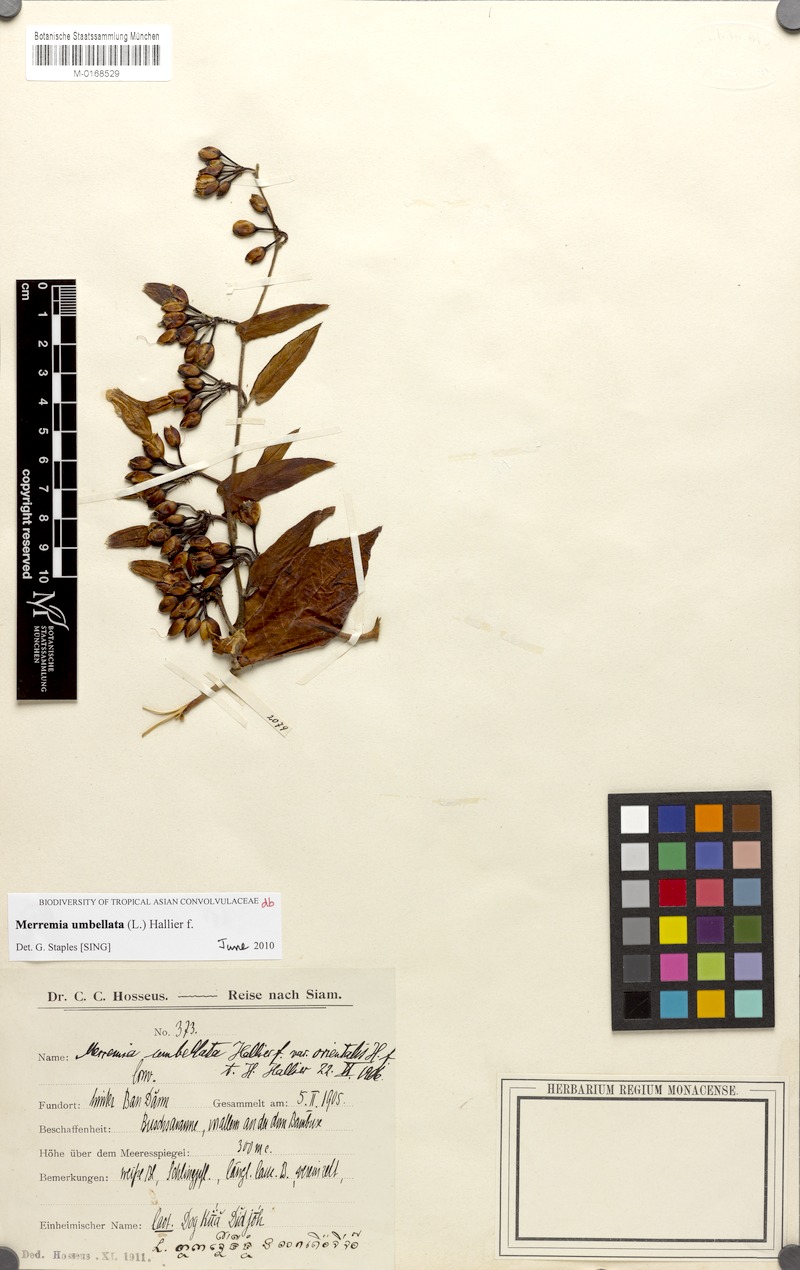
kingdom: Plantae
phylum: Tracheophyta
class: Magnoliopsida
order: Solanales
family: Convolvulaceae
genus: Camonea
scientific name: Camonea umbellata
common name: Hogvine
